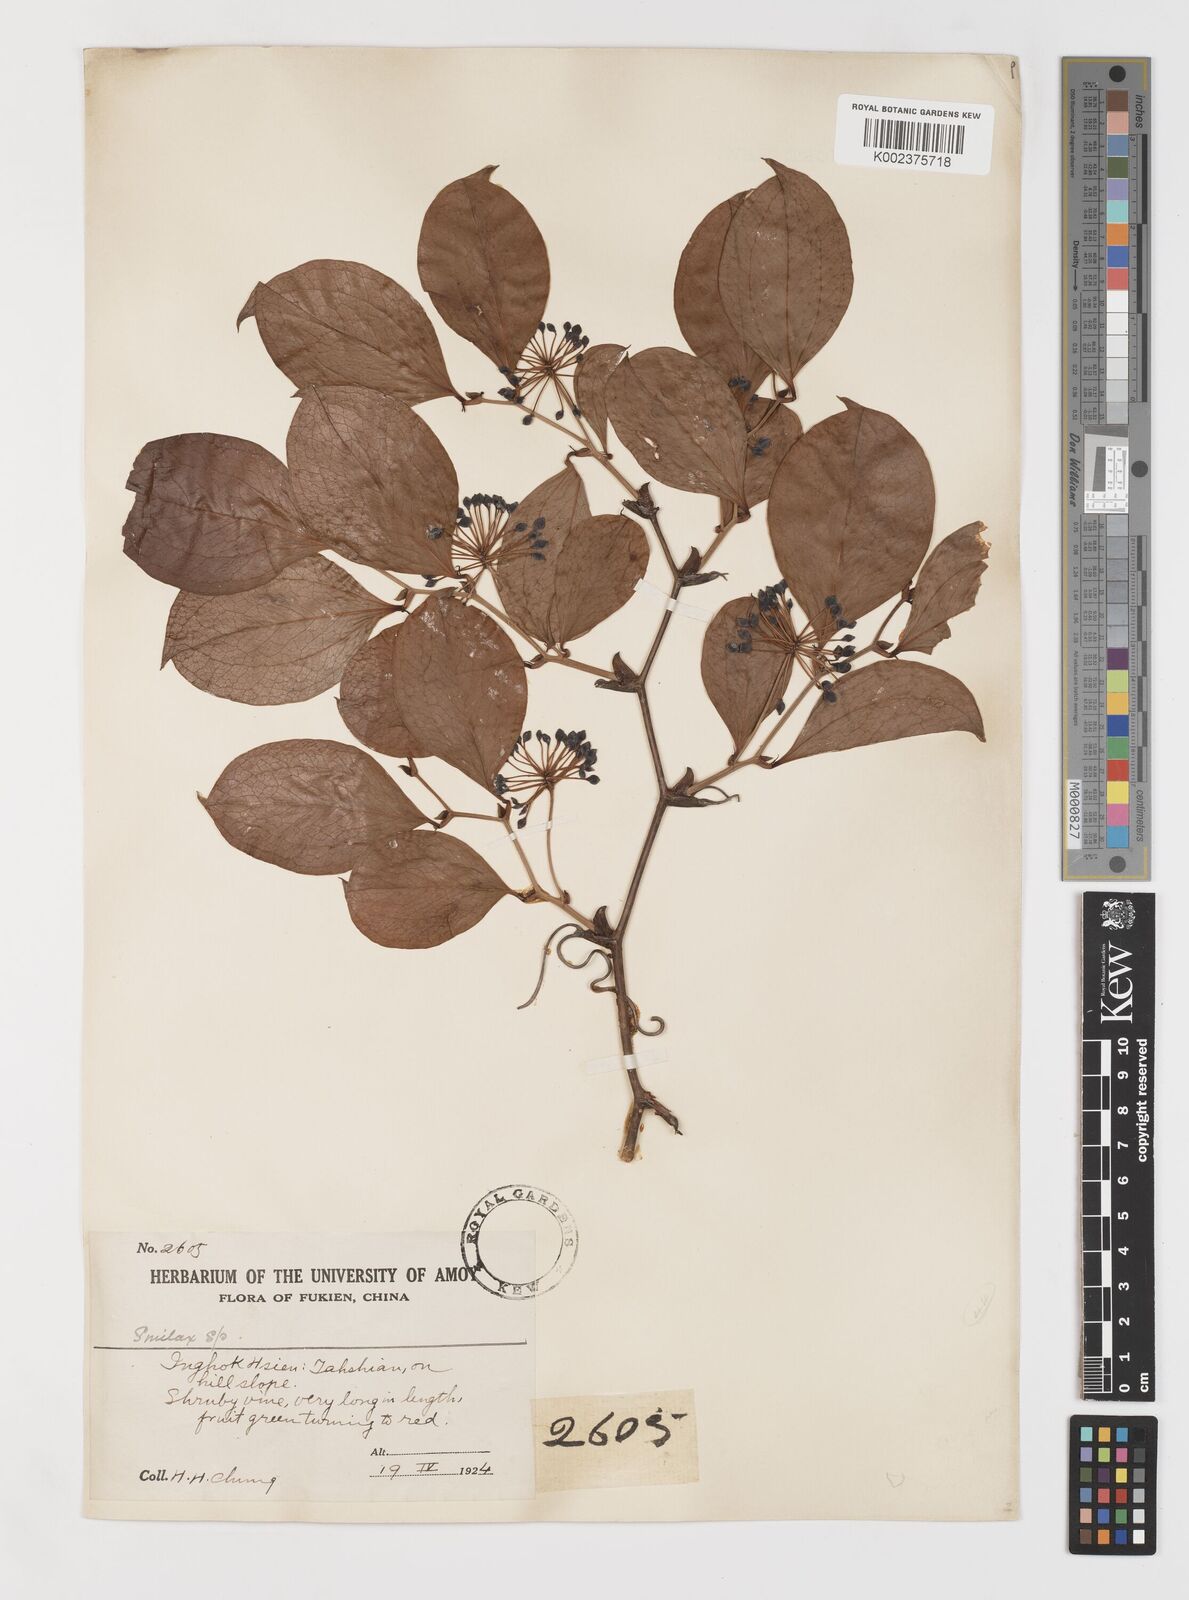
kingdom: Plantae
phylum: Tracheophyta
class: Liliopsida
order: Liliales
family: Smilacaceae
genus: Smilax
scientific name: Smilax china
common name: Chinaroot
